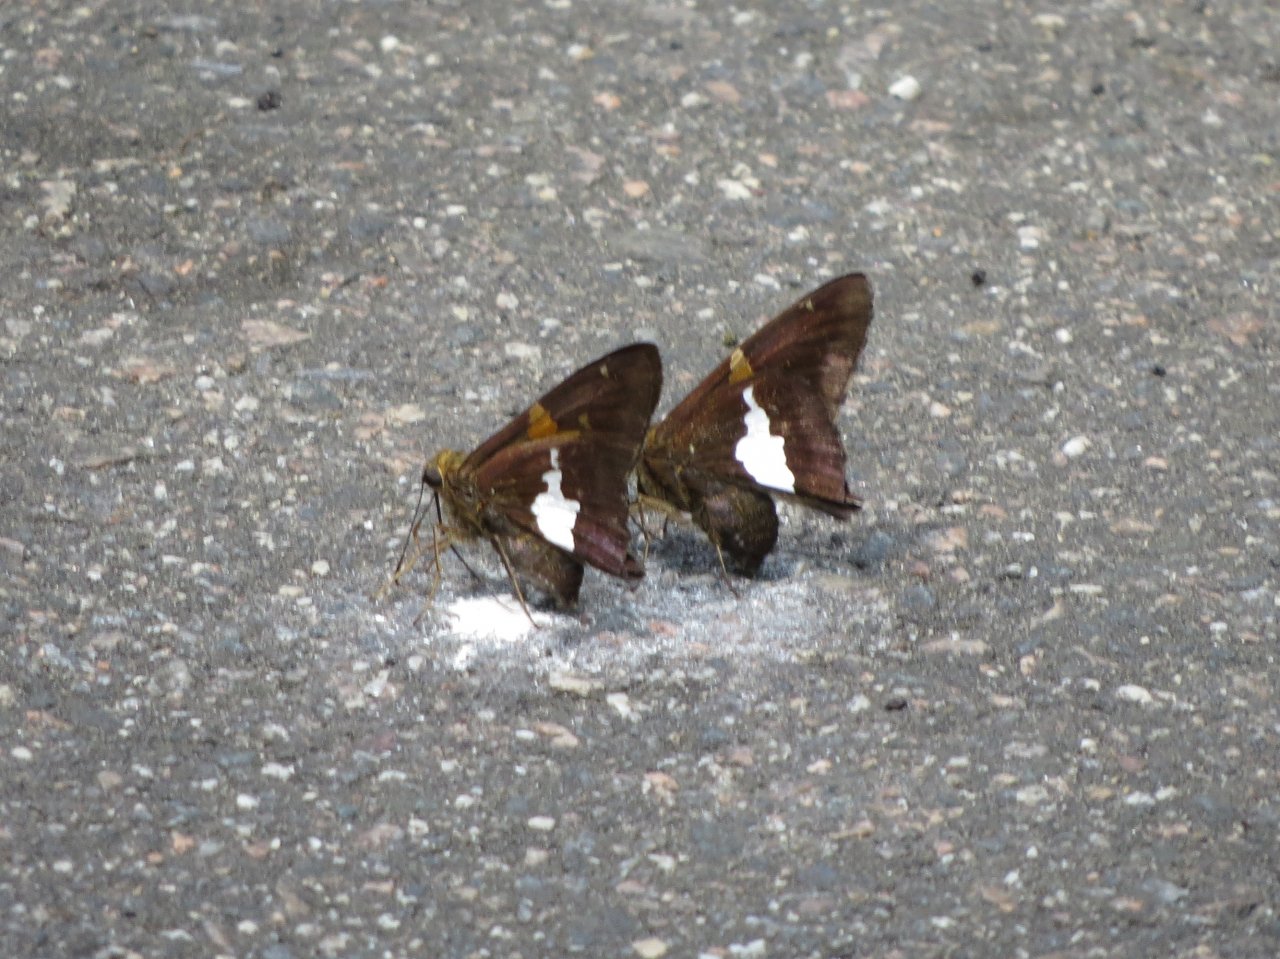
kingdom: Animalia
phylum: Arthropoda
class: Insecta
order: Lepidoptera
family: Hesperiidae
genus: Epargyreus
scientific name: Epargyreus clarus
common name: Silver-spotted Skipper
